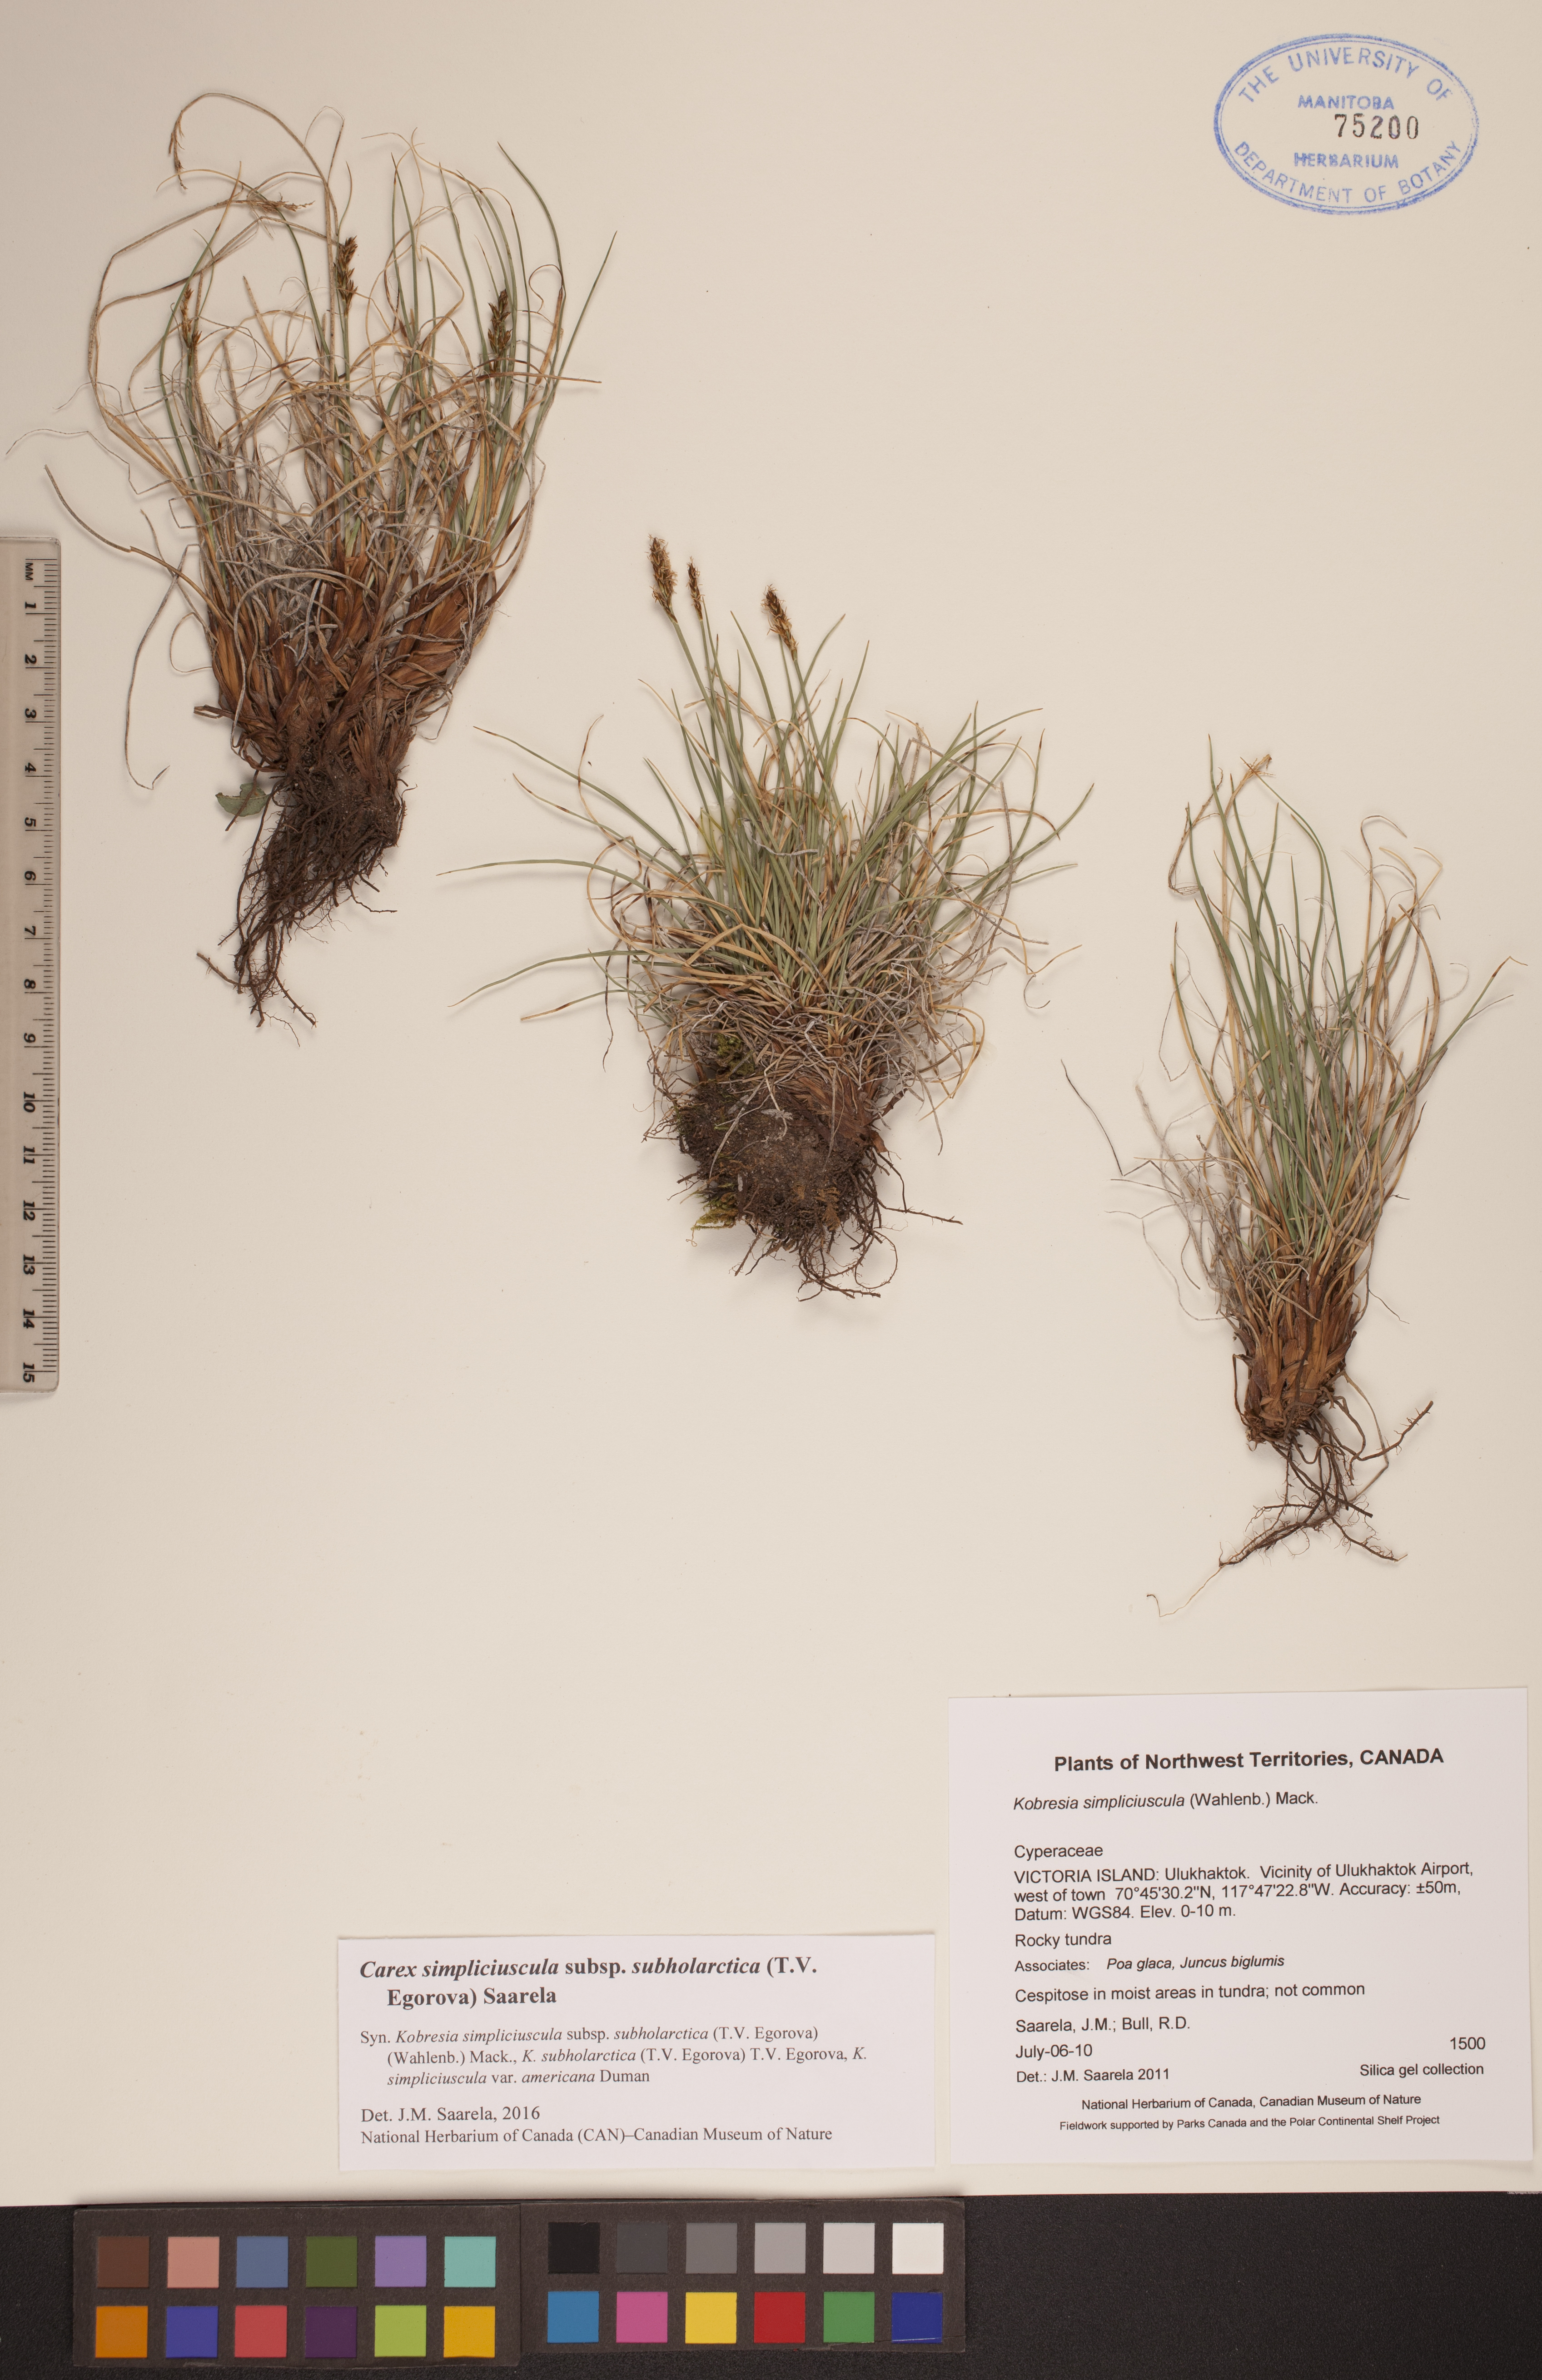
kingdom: Plantae
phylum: Tracheophyta
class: Liliopsida
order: Poales
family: Cyperaceae
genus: Carex
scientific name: Carex simpliciuscula
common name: Simple bog sedge
